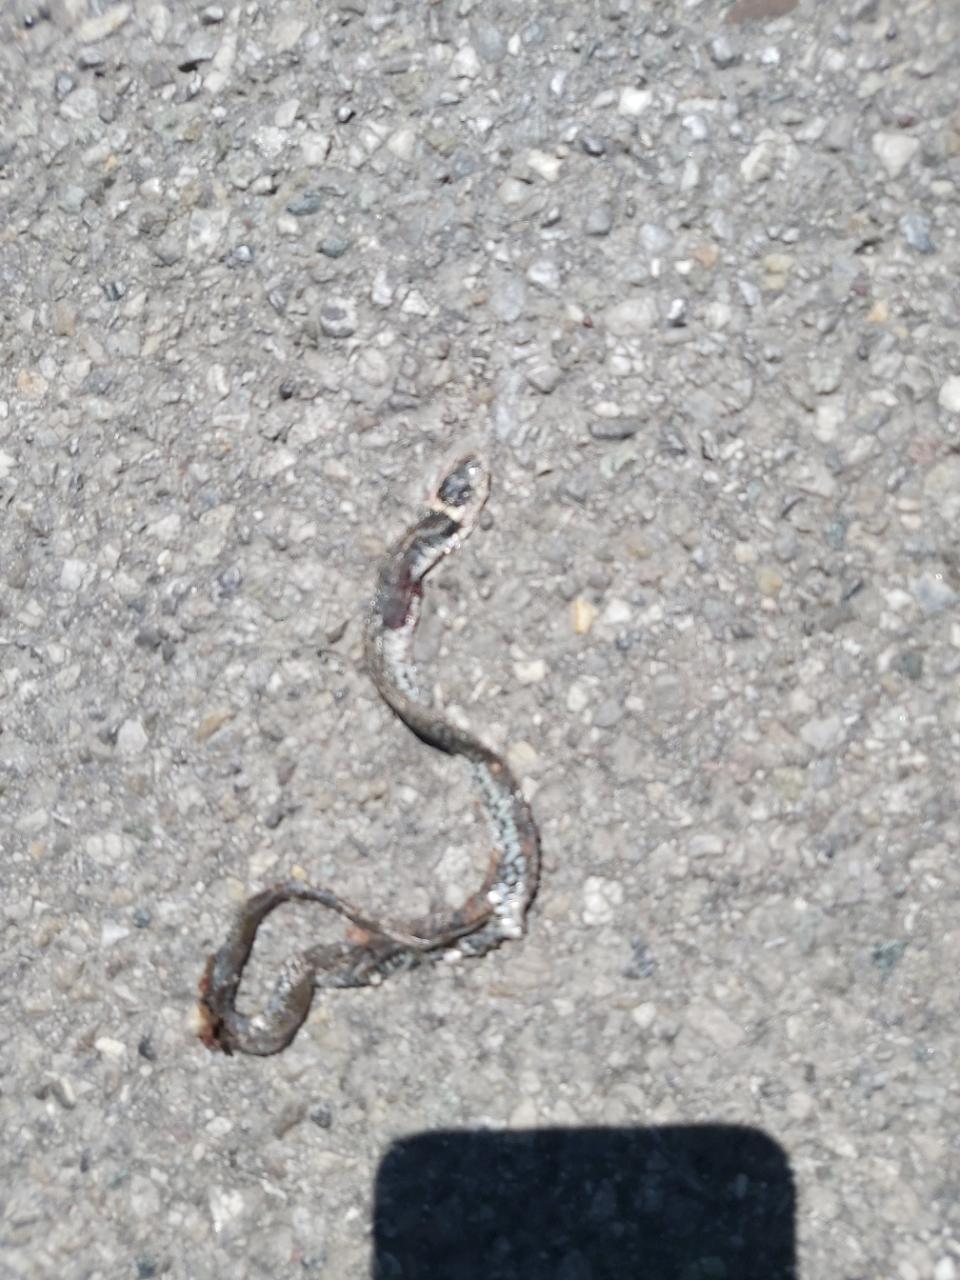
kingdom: Animalia
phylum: Chordata
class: Squamata
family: Colubridae
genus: Natrix
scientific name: Natrix natrix
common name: Grass snake
